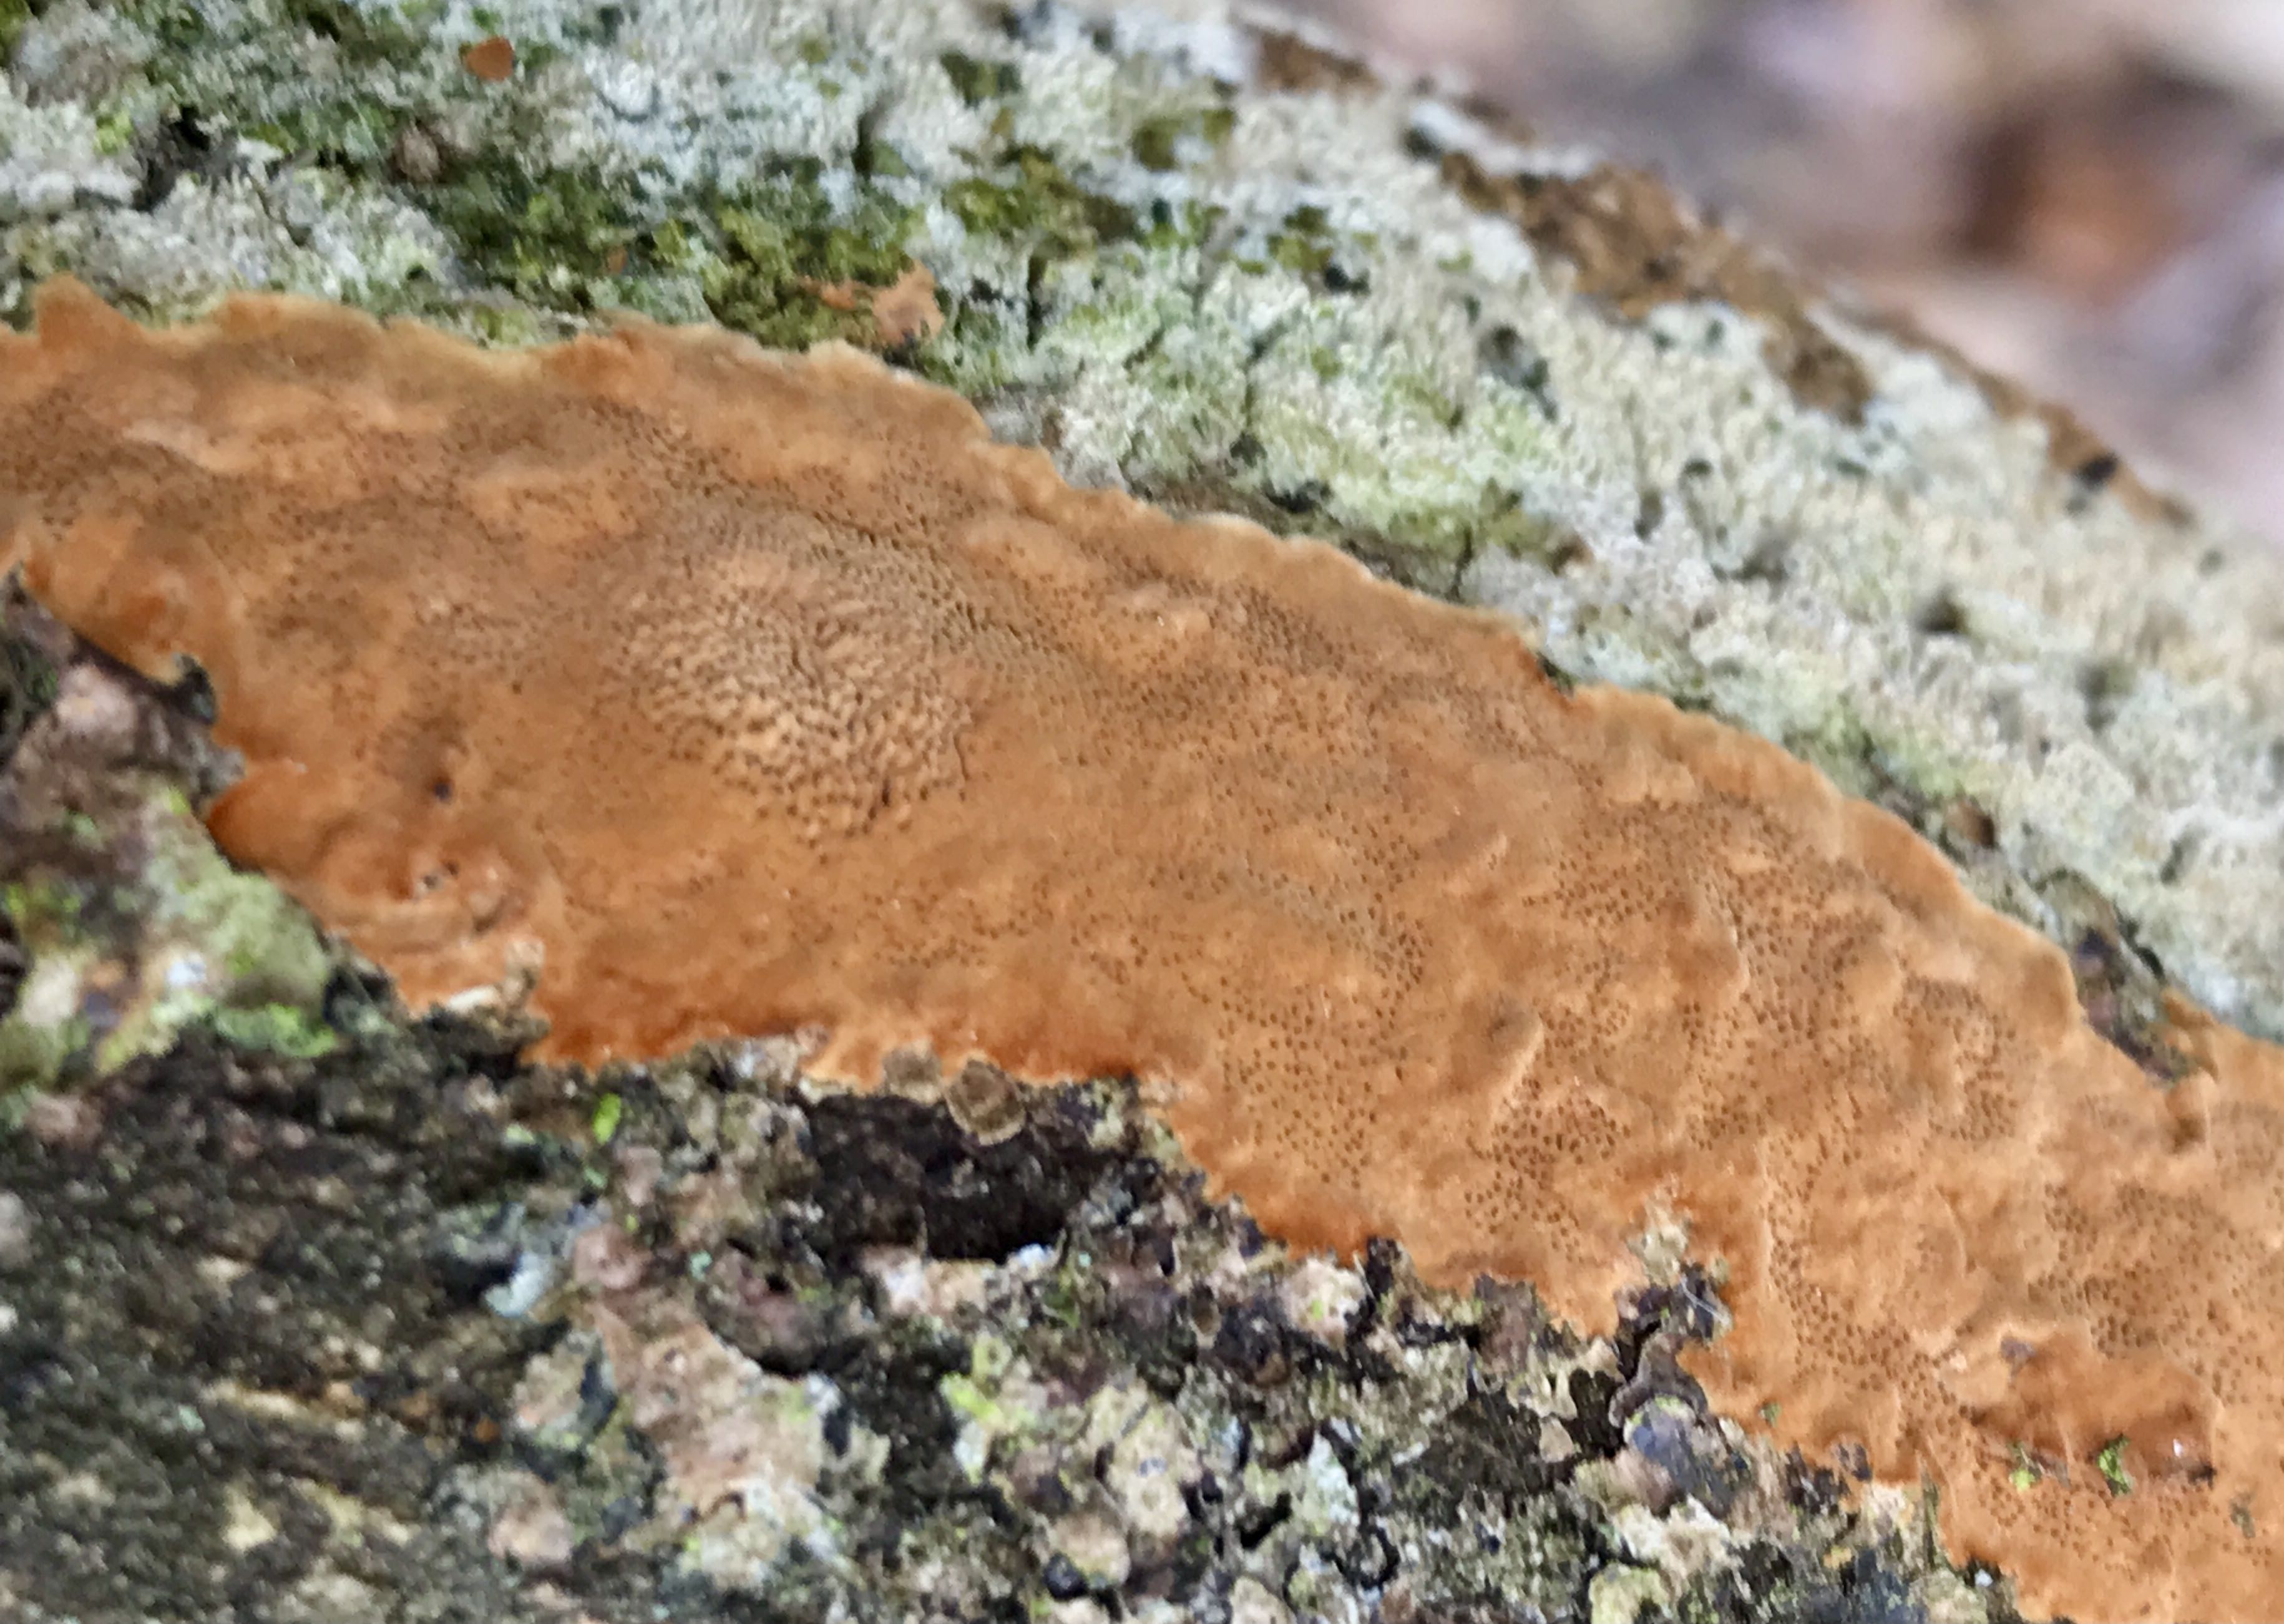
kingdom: Fungi
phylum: Basidiomycota
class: Agaricomycetes
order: Hymenochaetales
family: Hymenochaetaceae
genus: Fuscoporia
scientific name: Fuscoporia ferrea
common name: skorpe-ildporesvamp
